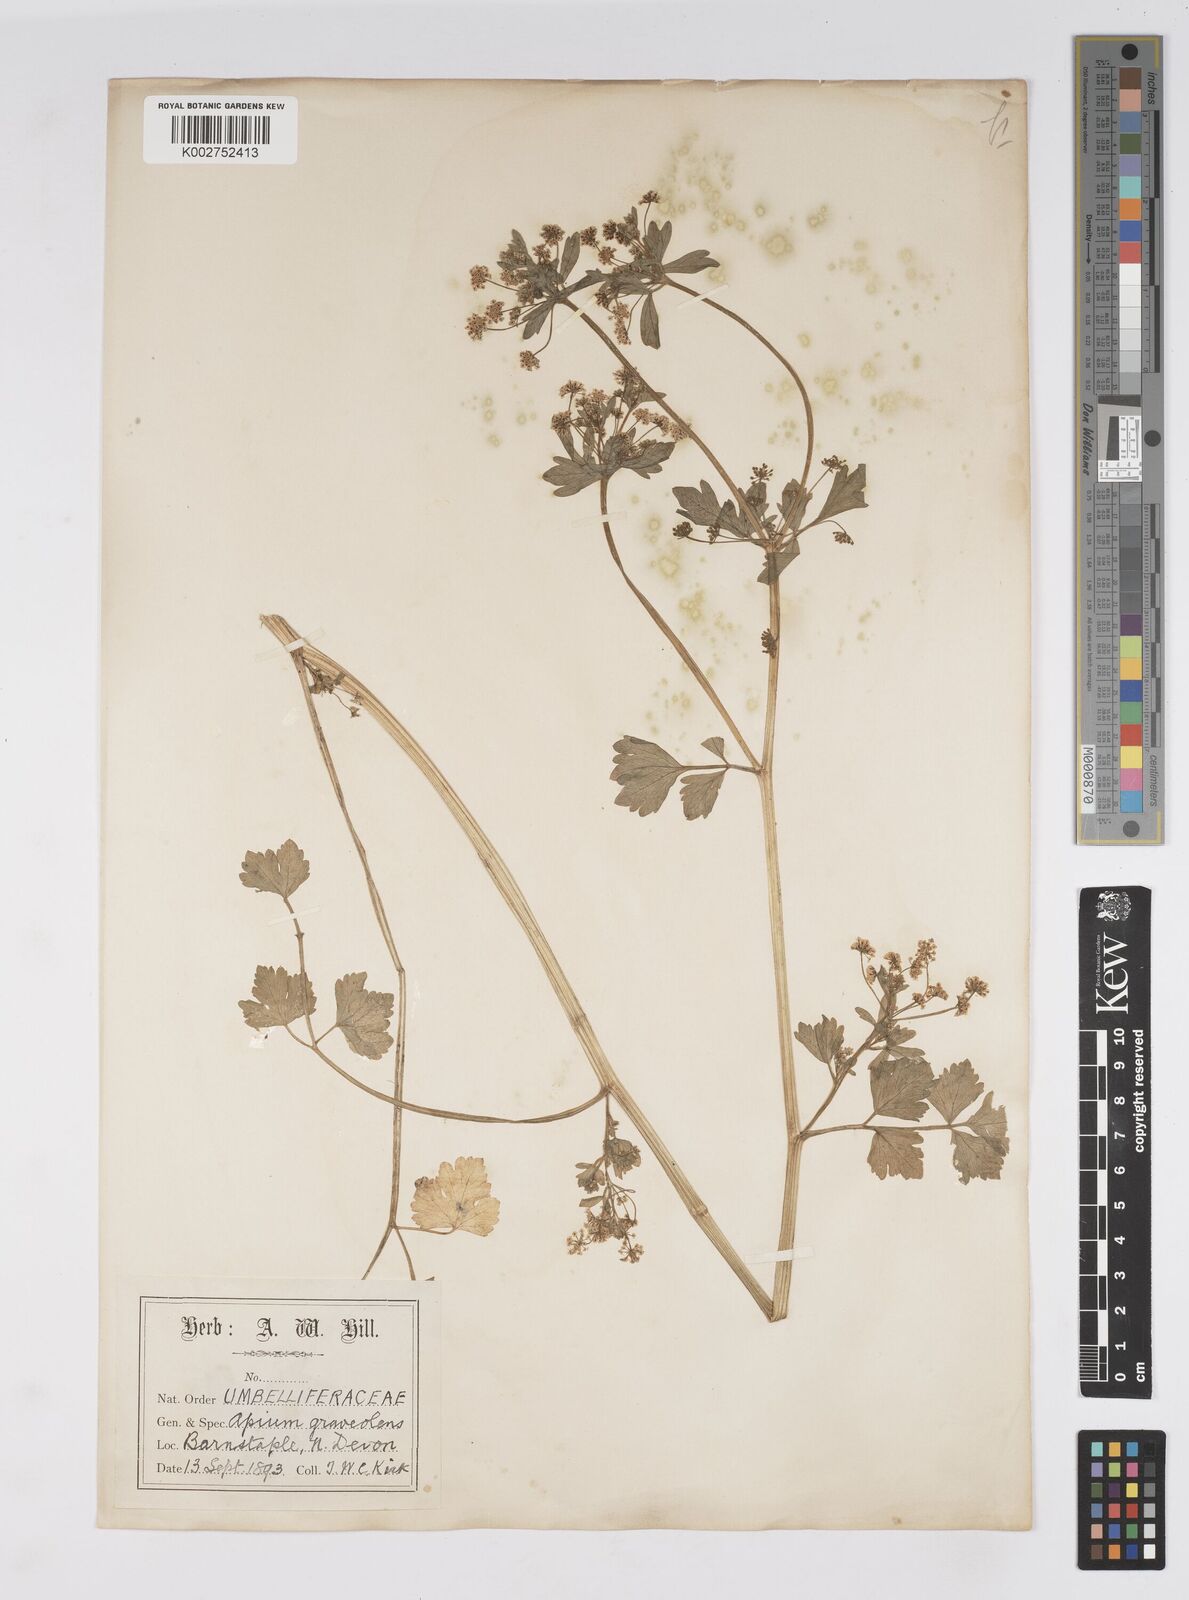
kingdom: Plantae
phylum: Tracheophyta
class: Magnoliopsida
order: Apiales
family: Apiaceae
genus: Apium
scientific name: Apium graveolens
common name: Wild celery
